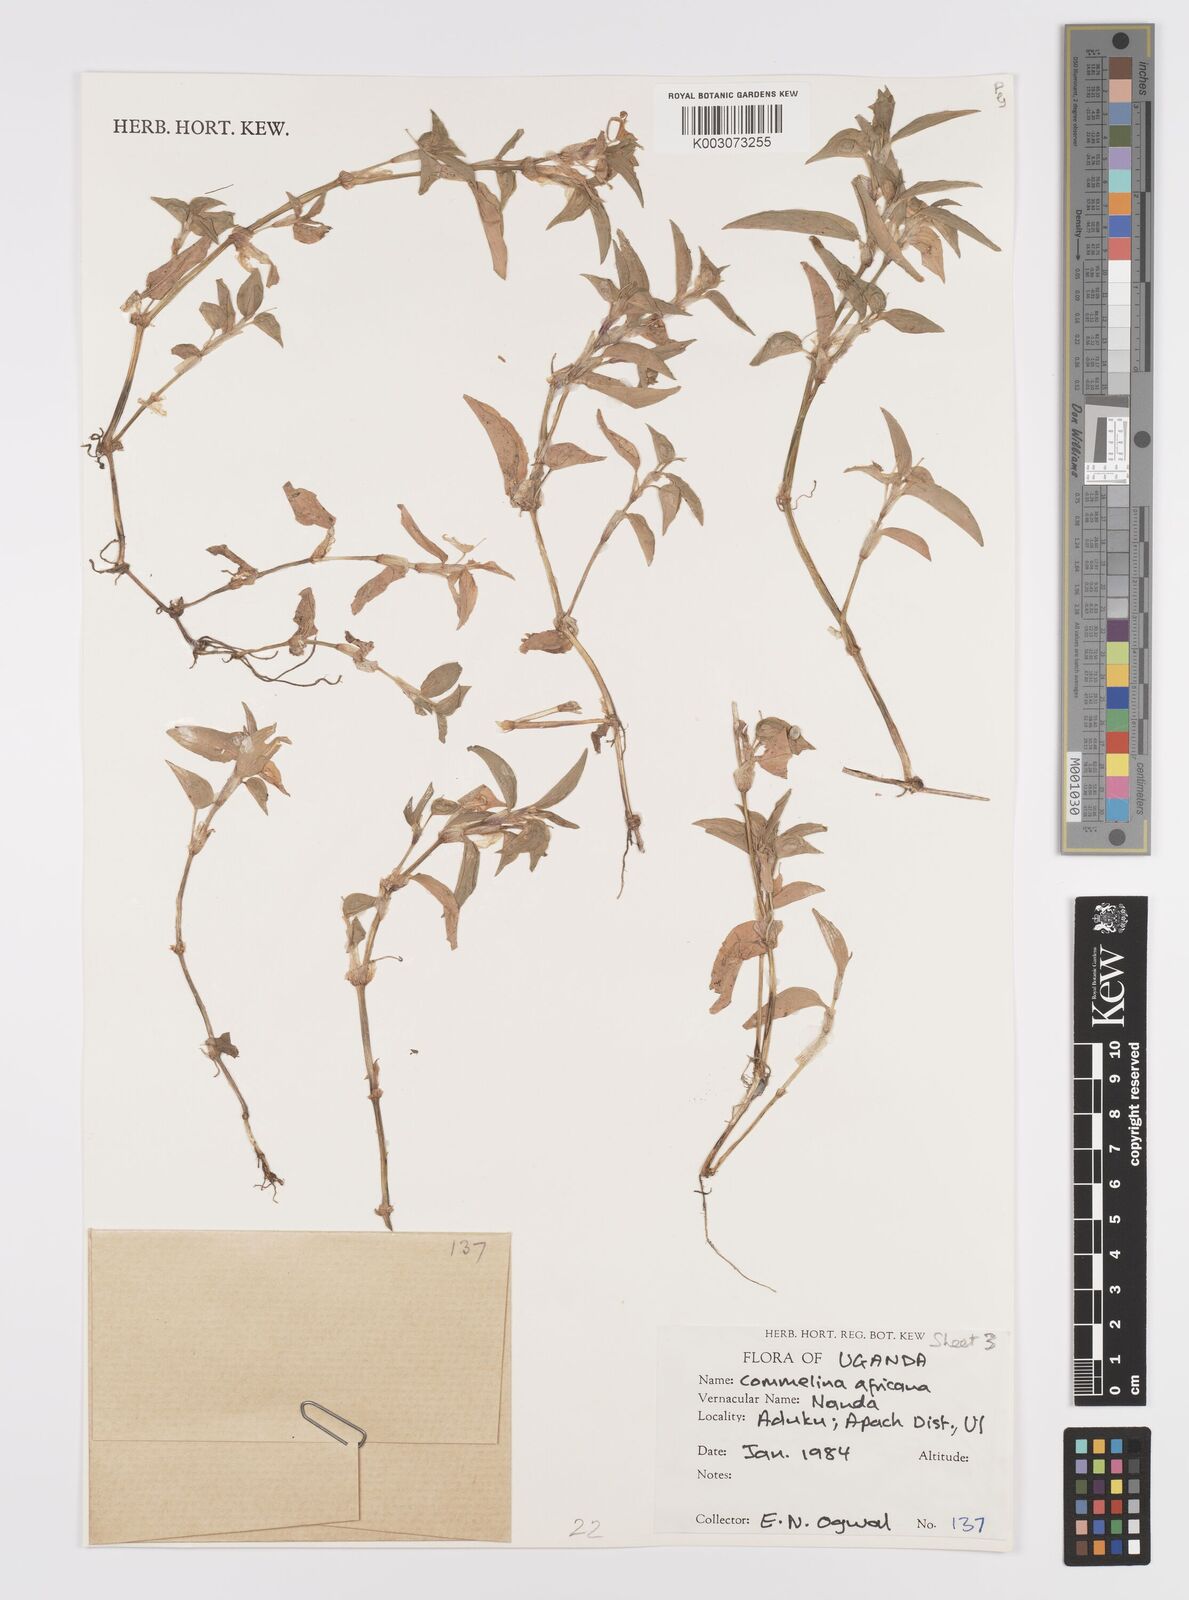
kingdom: Plantae
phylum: Tracheophyta
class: Liliopsida
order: Commelinales
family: Commelinaceae
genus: Commelina
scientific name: Commelina africana
